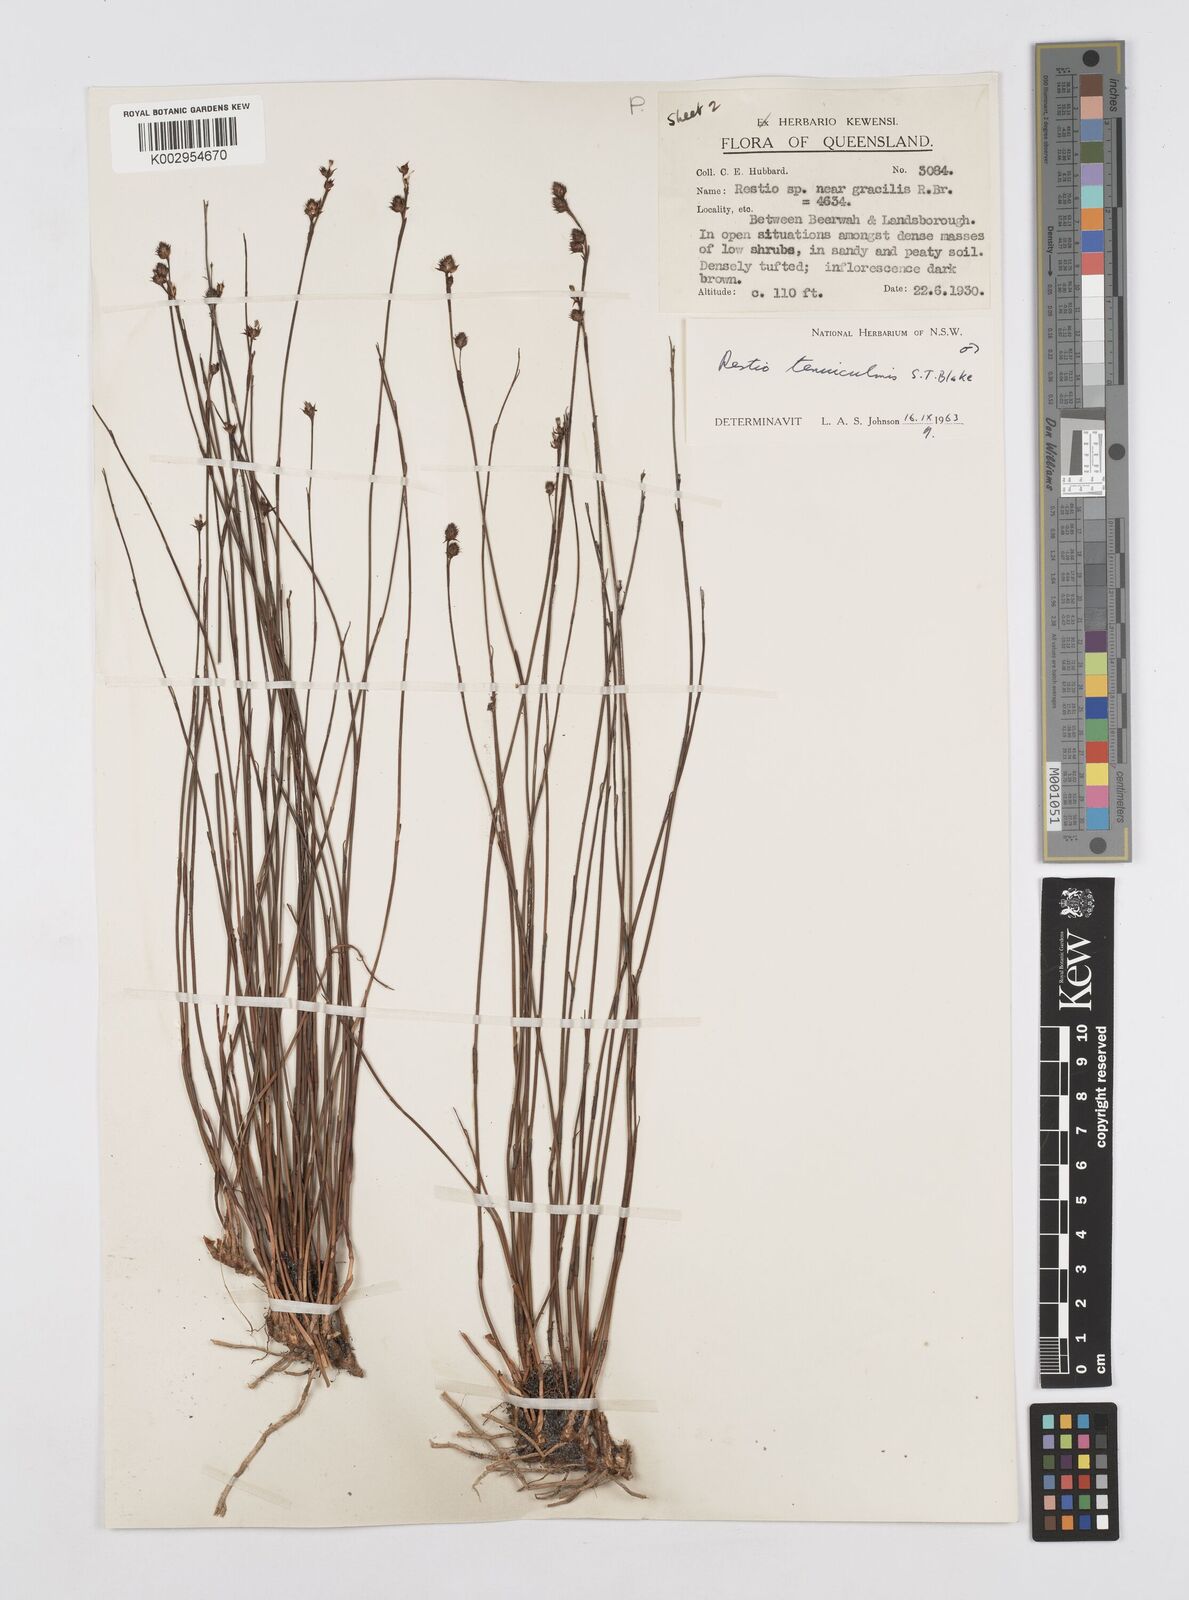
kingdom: Plantae
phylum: Tracheophyta
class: Liliopsida
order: Poales
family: Restionaceae
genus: Baloskion
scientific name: Baloskion tenuiculme
